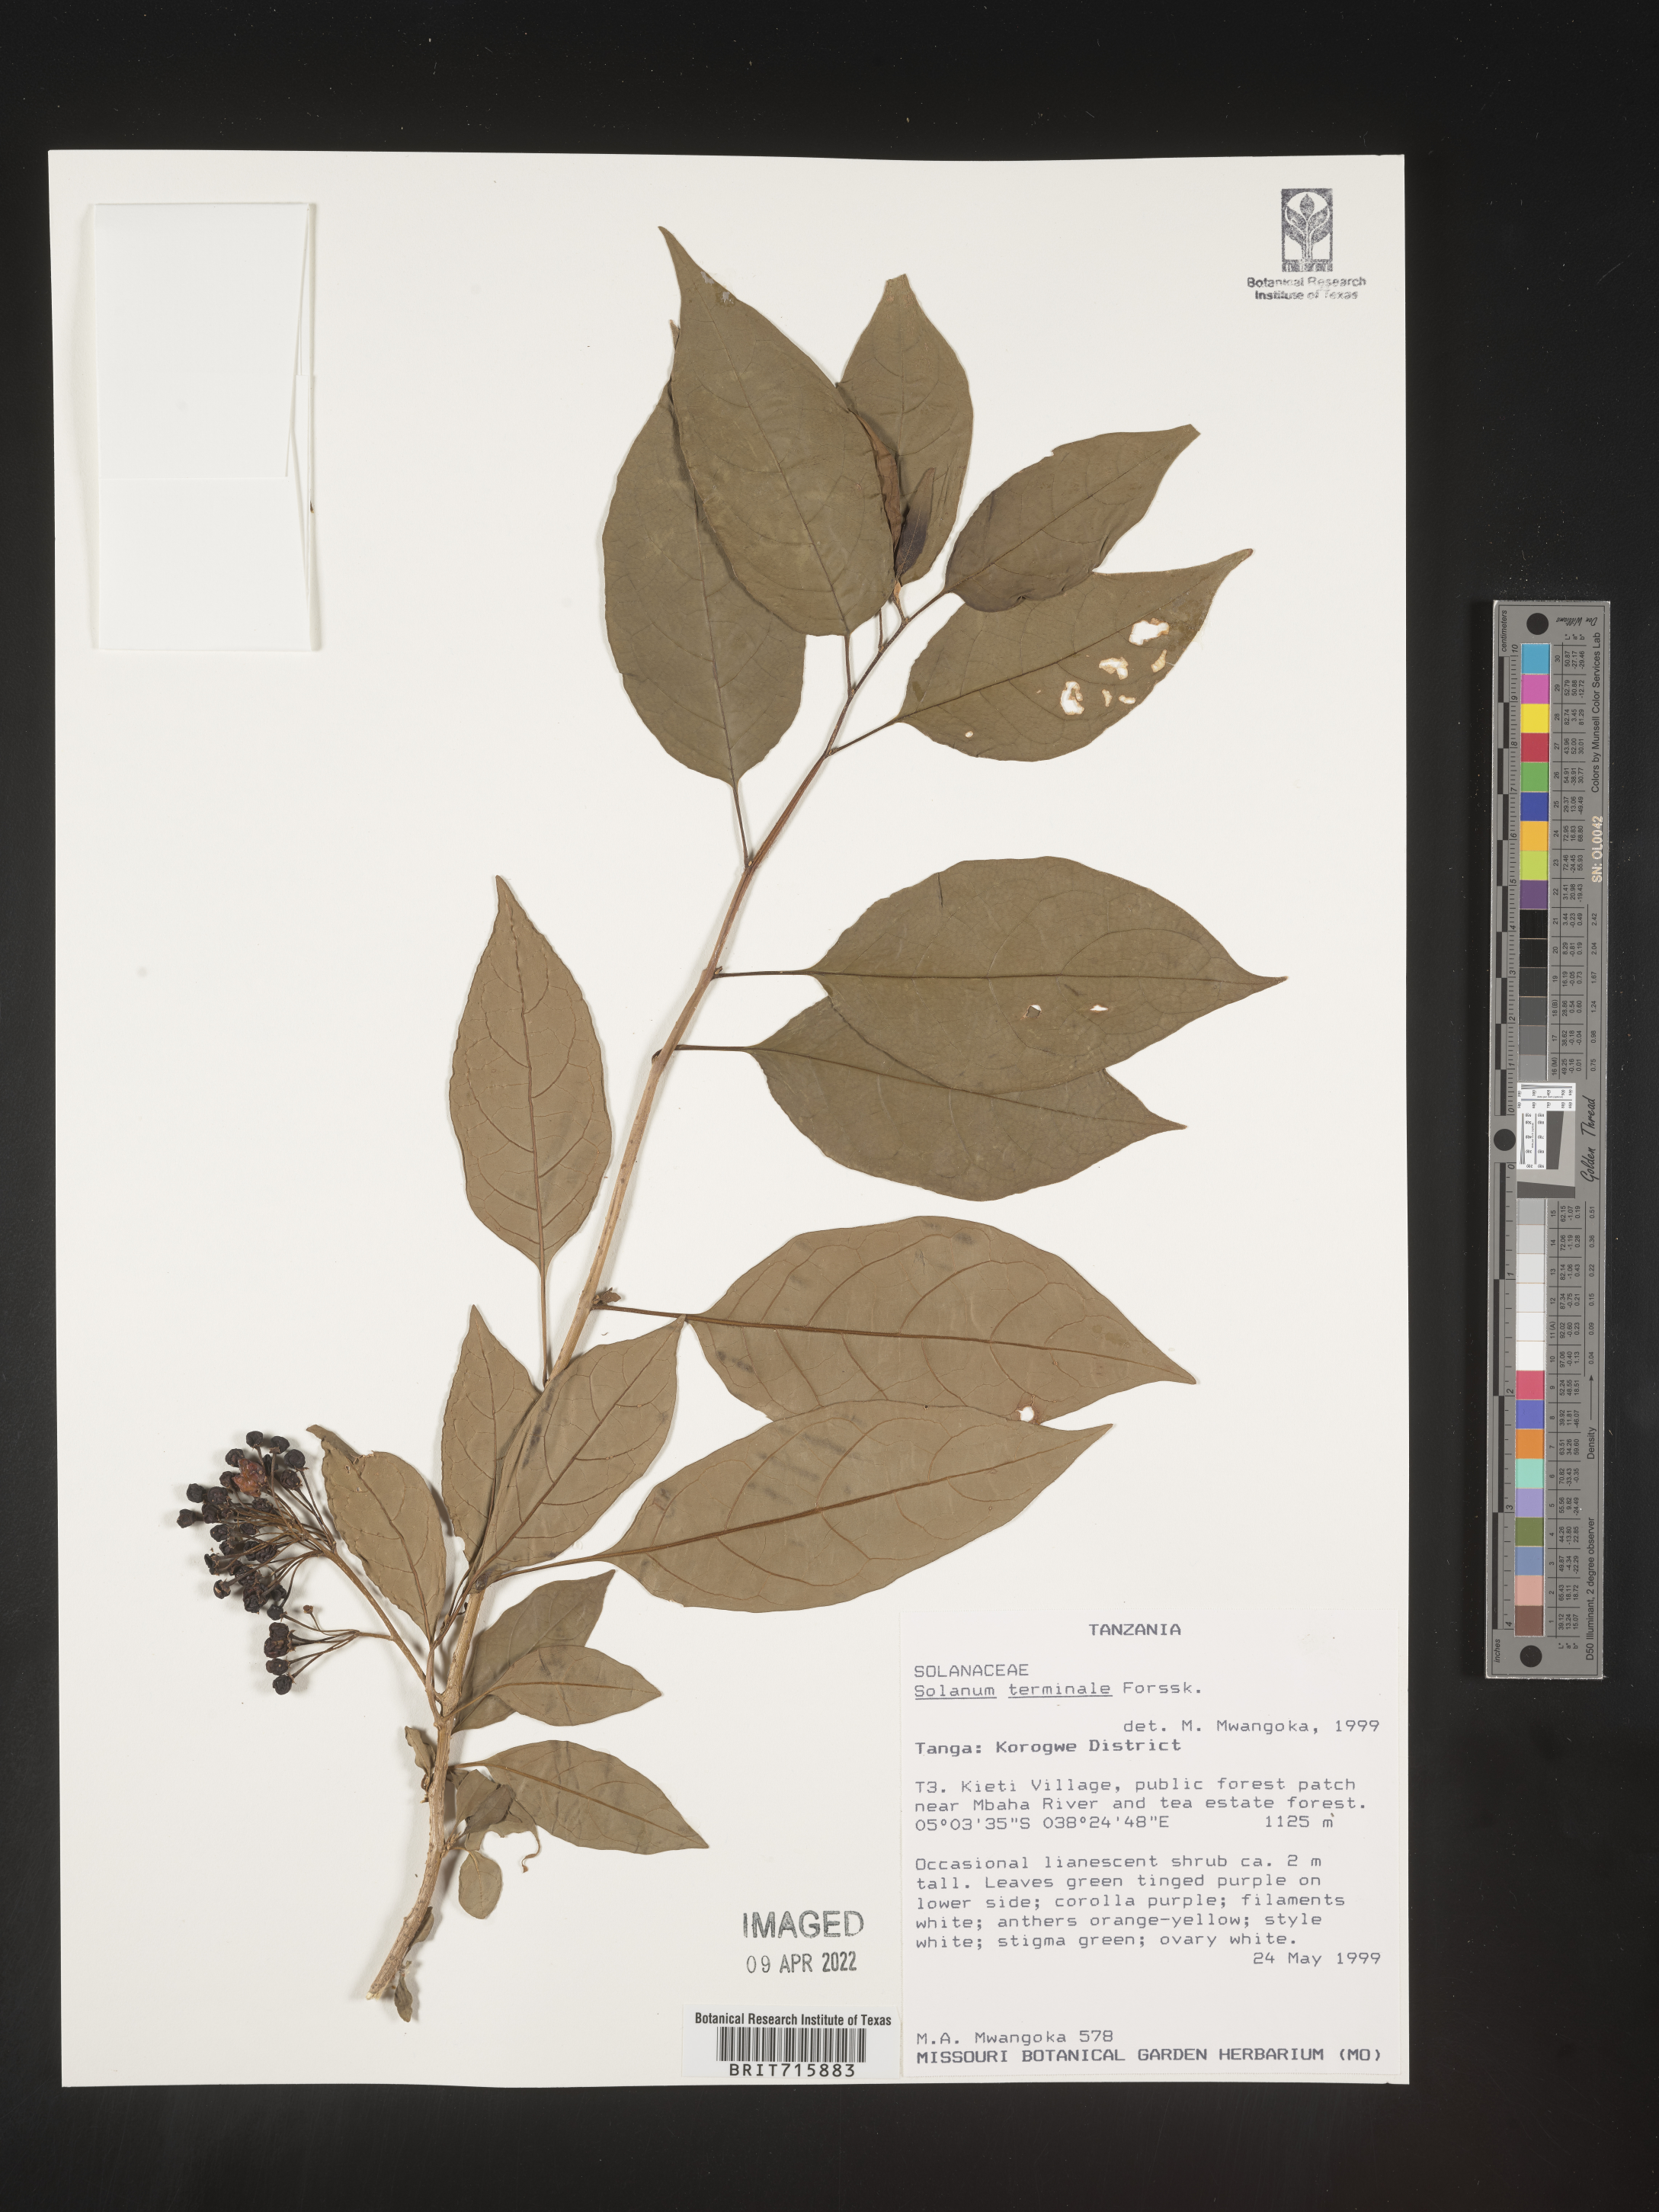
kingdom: Plantae
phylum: Tracheophyta
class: Magnoliopsida
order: Solanales
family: Solanaceae
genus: Solanum
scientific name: Solanum
